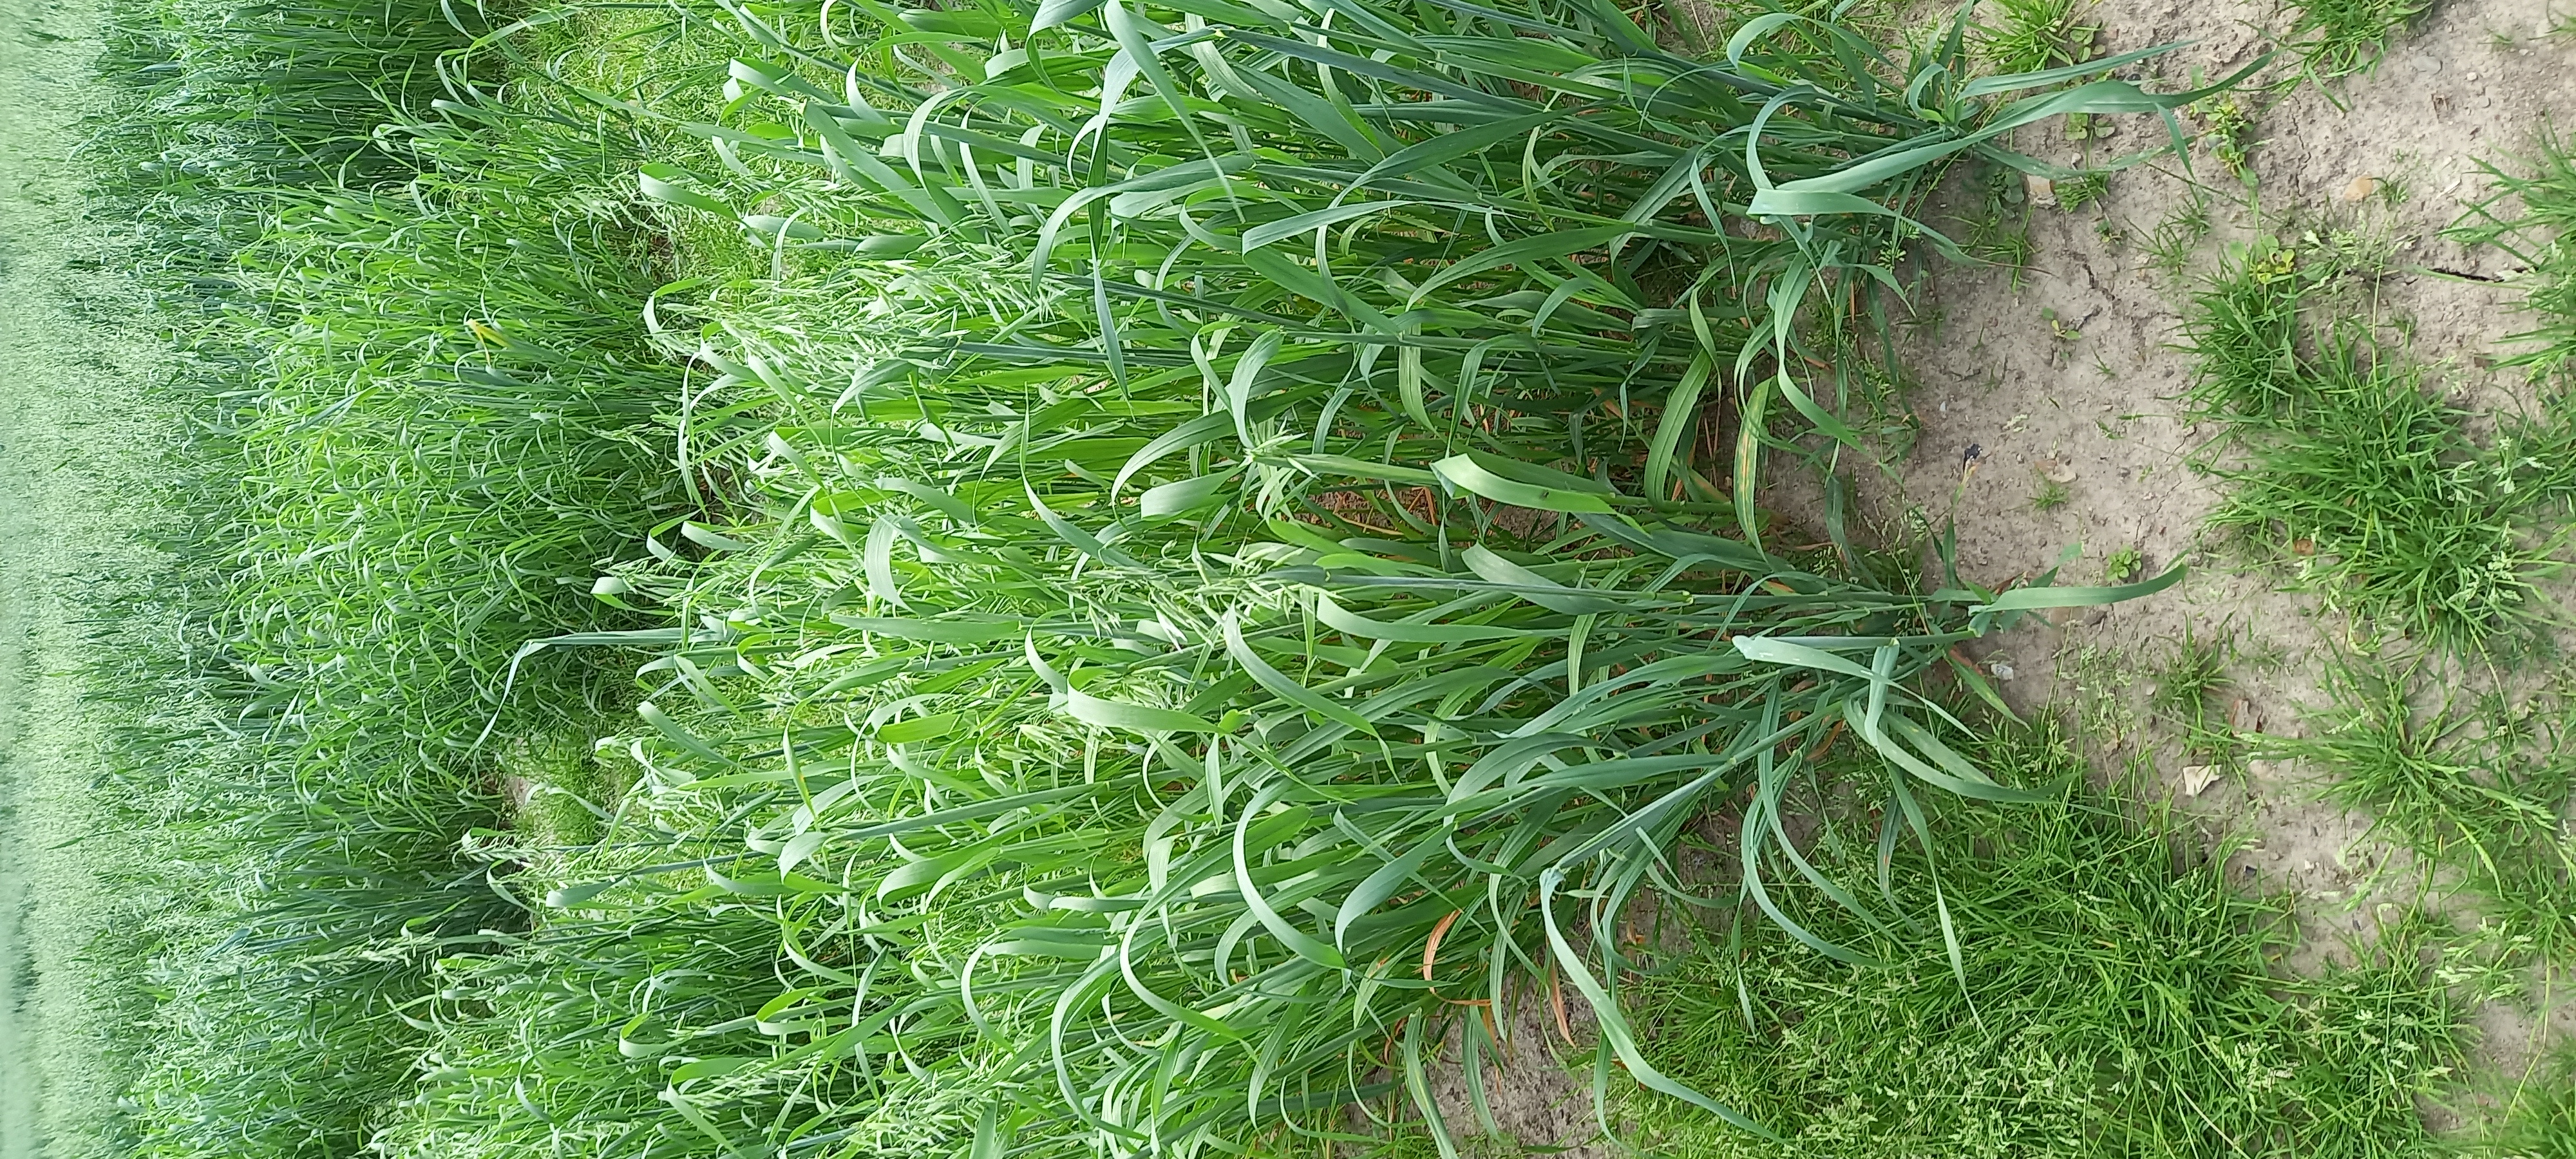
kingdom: Plantae
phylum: Tracheophyta
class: Liliopsida
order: Poales
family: Poaceae
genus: Avena
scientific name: Avena sativa
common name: Oat
